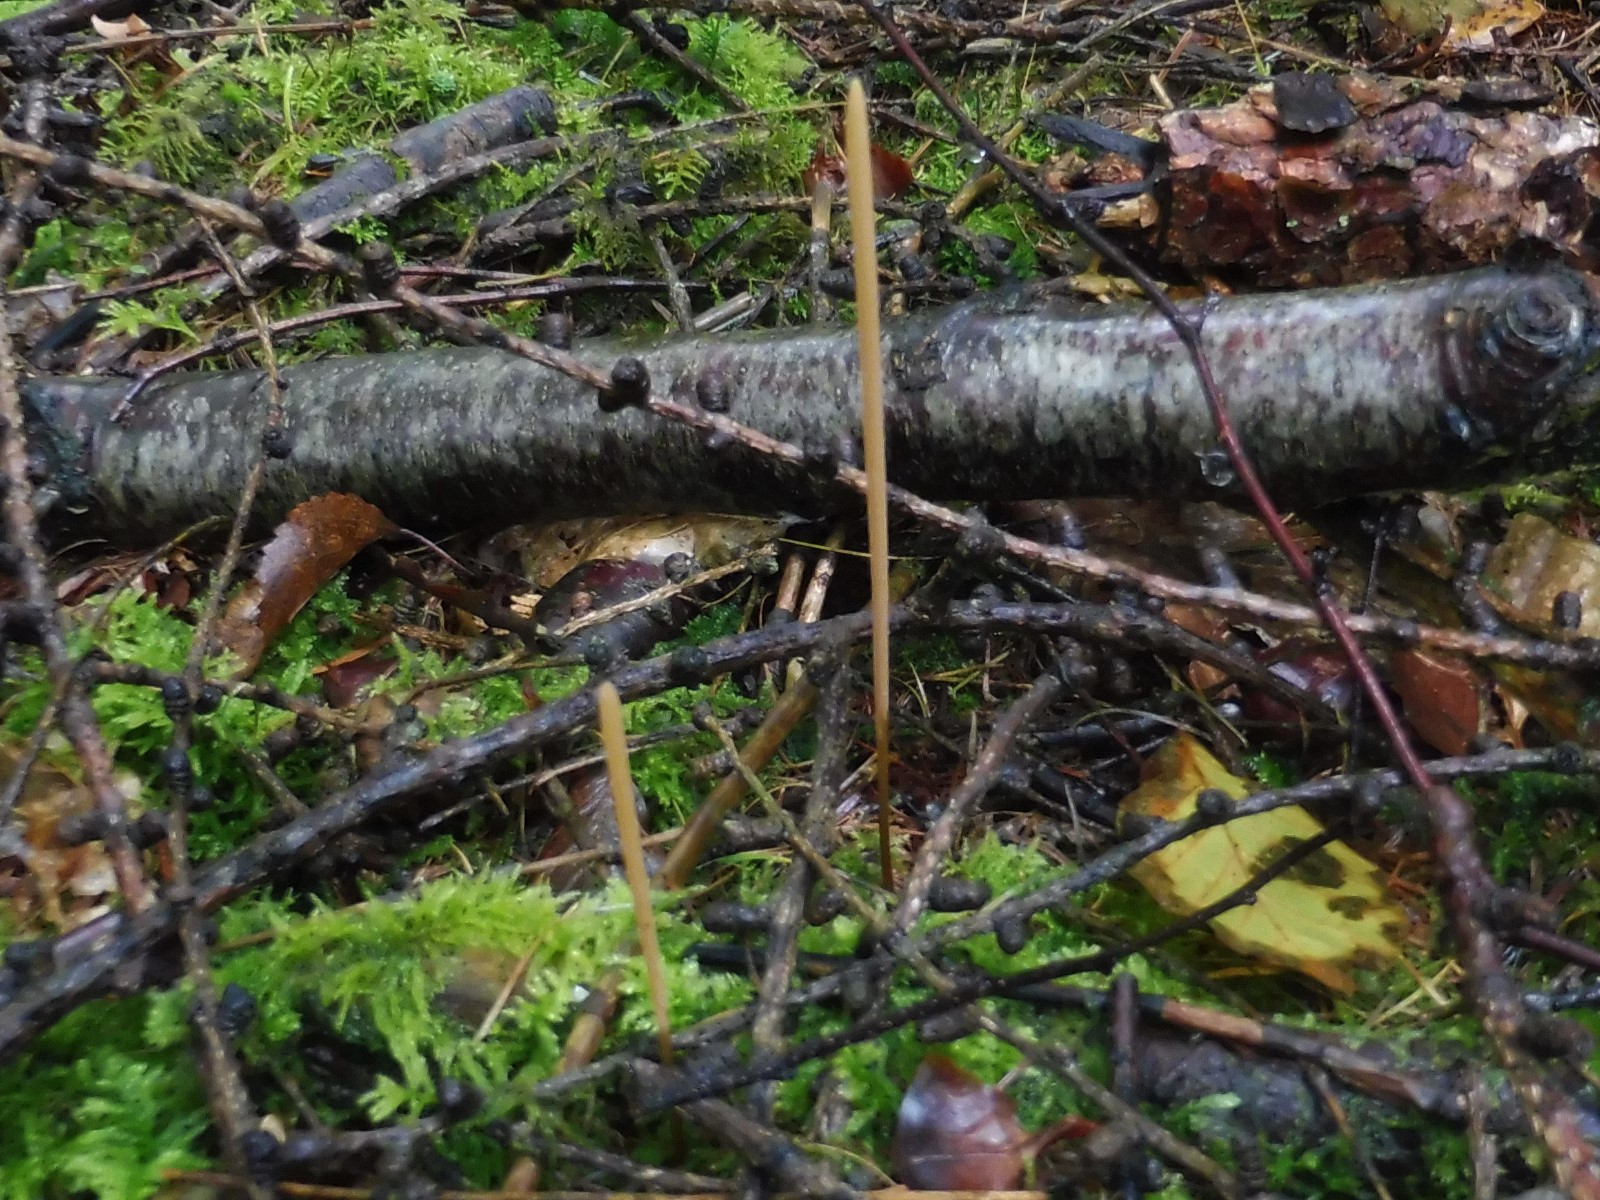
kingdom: Fungi
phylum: Basidiomycota
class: Agaricomycetes
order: Agaricales
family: Typhulaceae
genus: Typhula
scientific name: Typhula fistulosa
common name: pibet rørkølle
